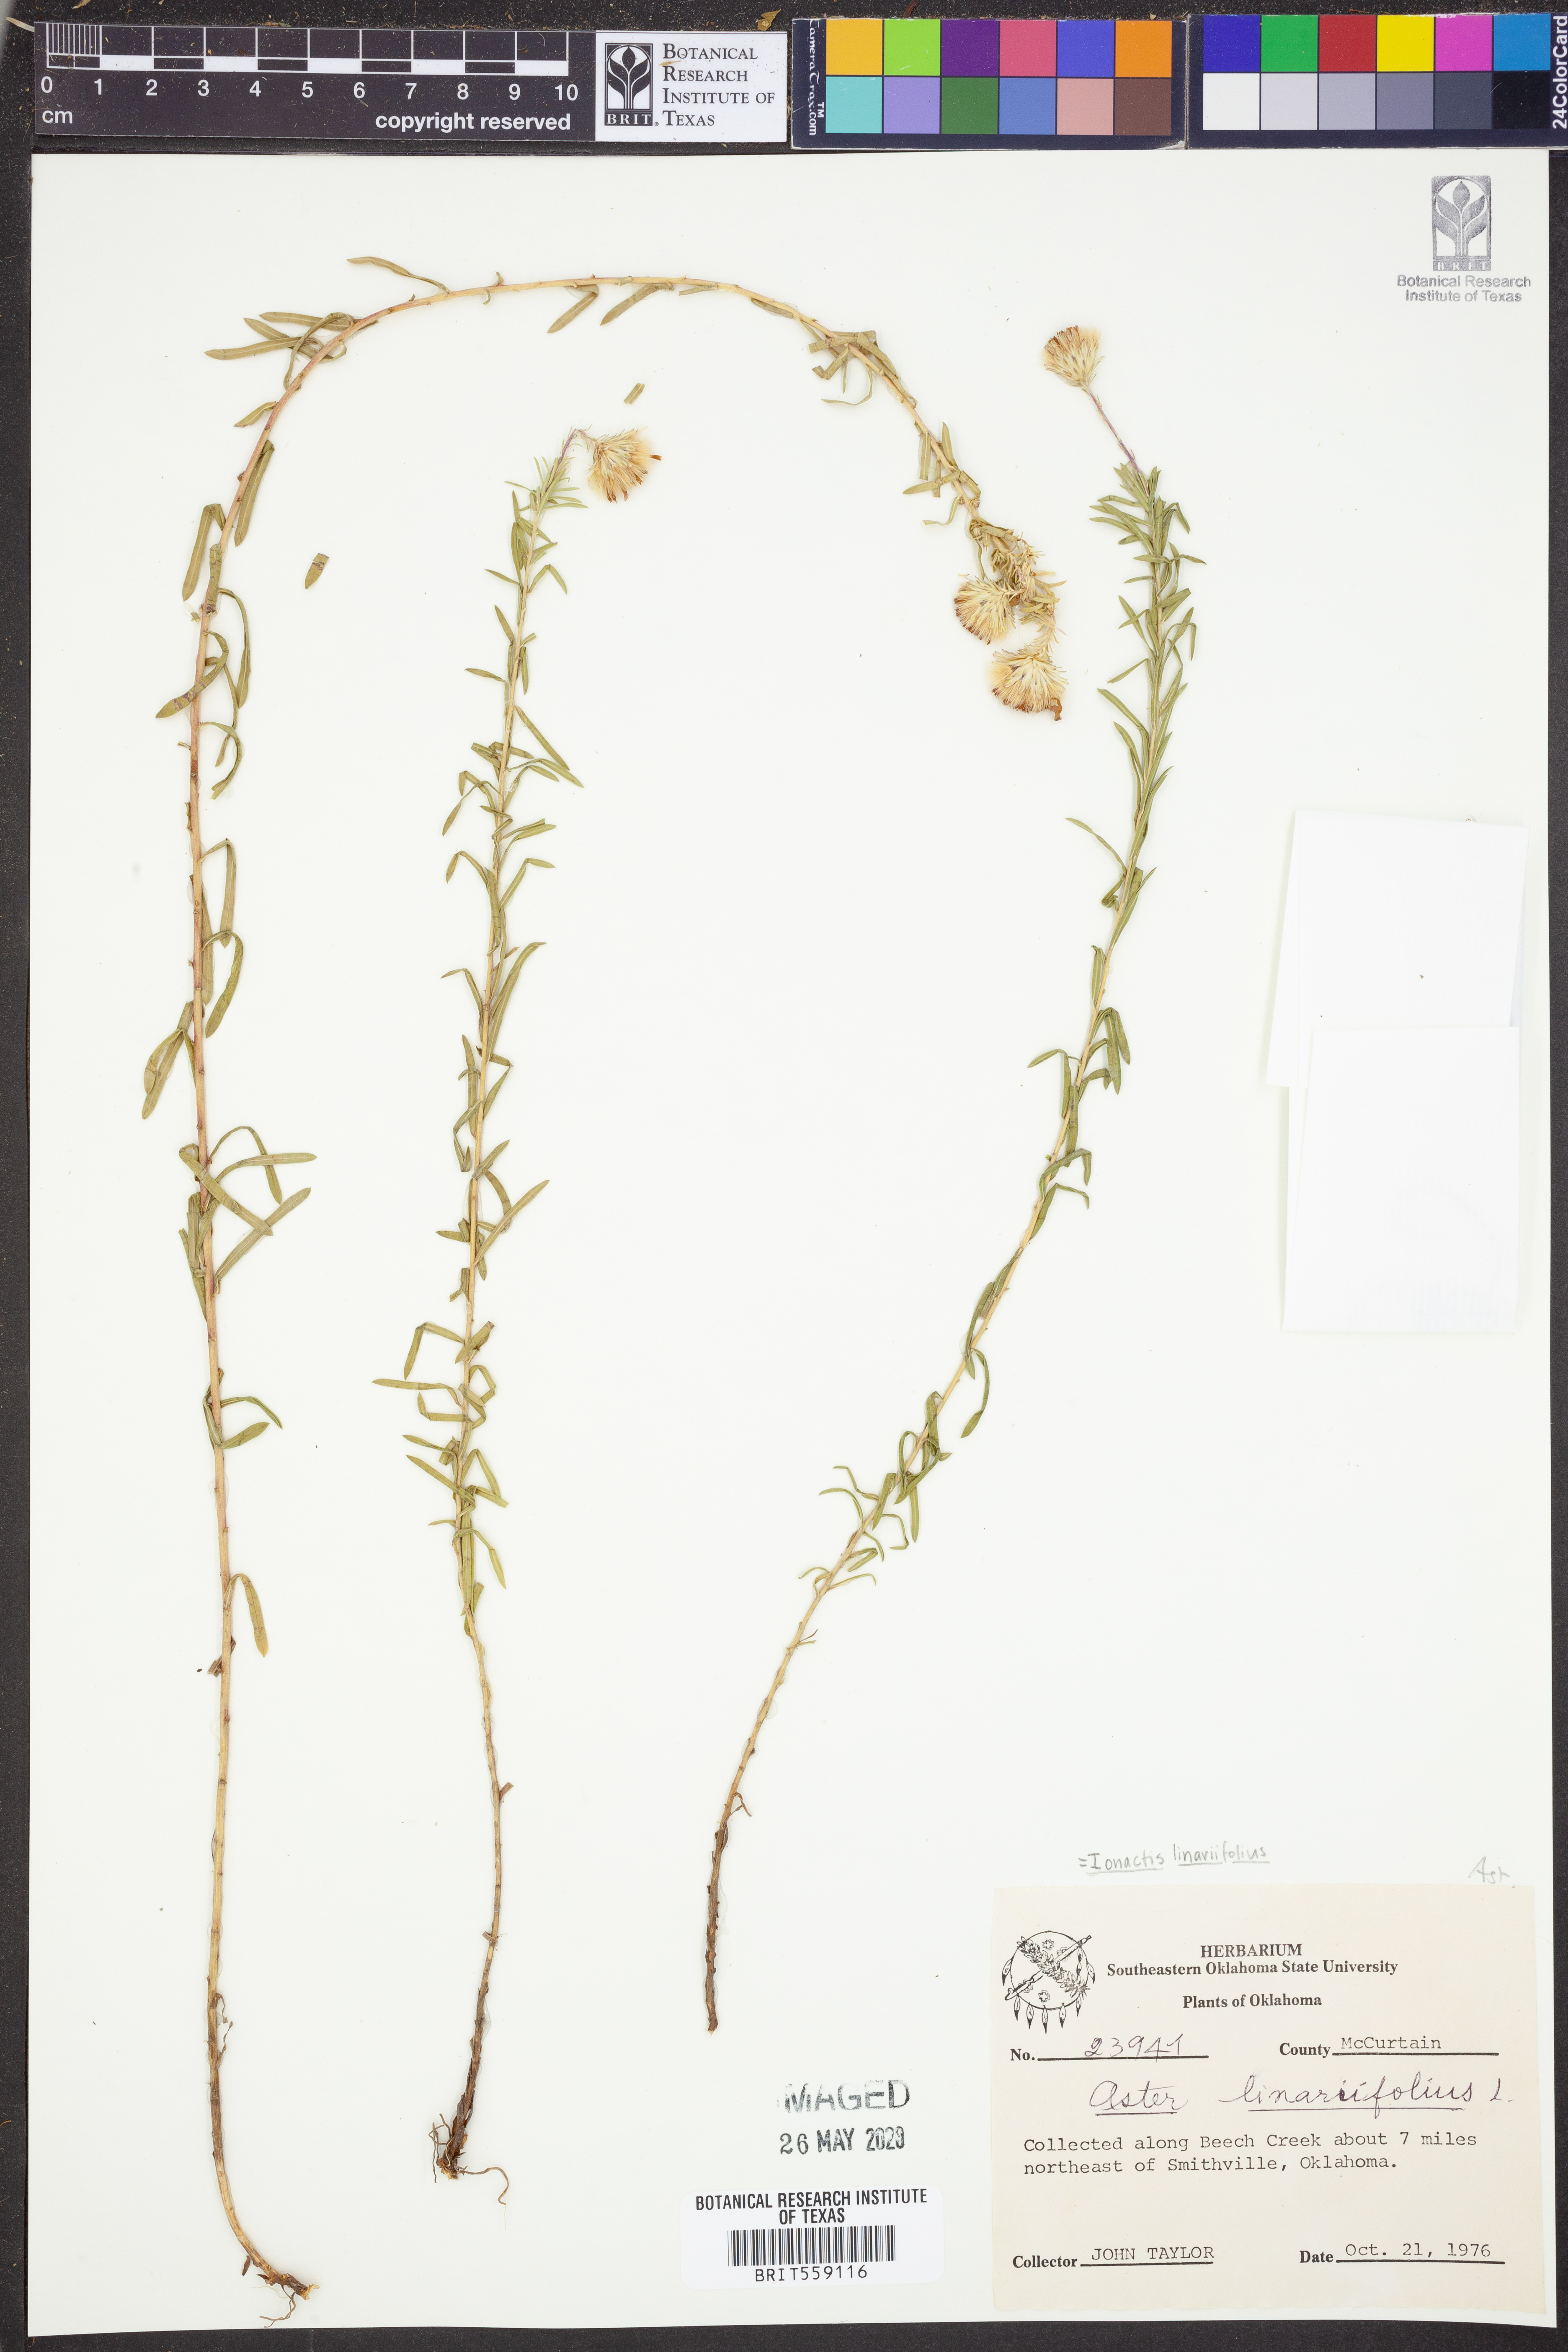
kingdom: Plantae
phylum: Tracheophyta
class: Magnoliopsida
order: Asterales
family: Asteraceae
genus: Ionactis
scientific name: Ionactis linariifolia
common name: Flax-leaf aster
